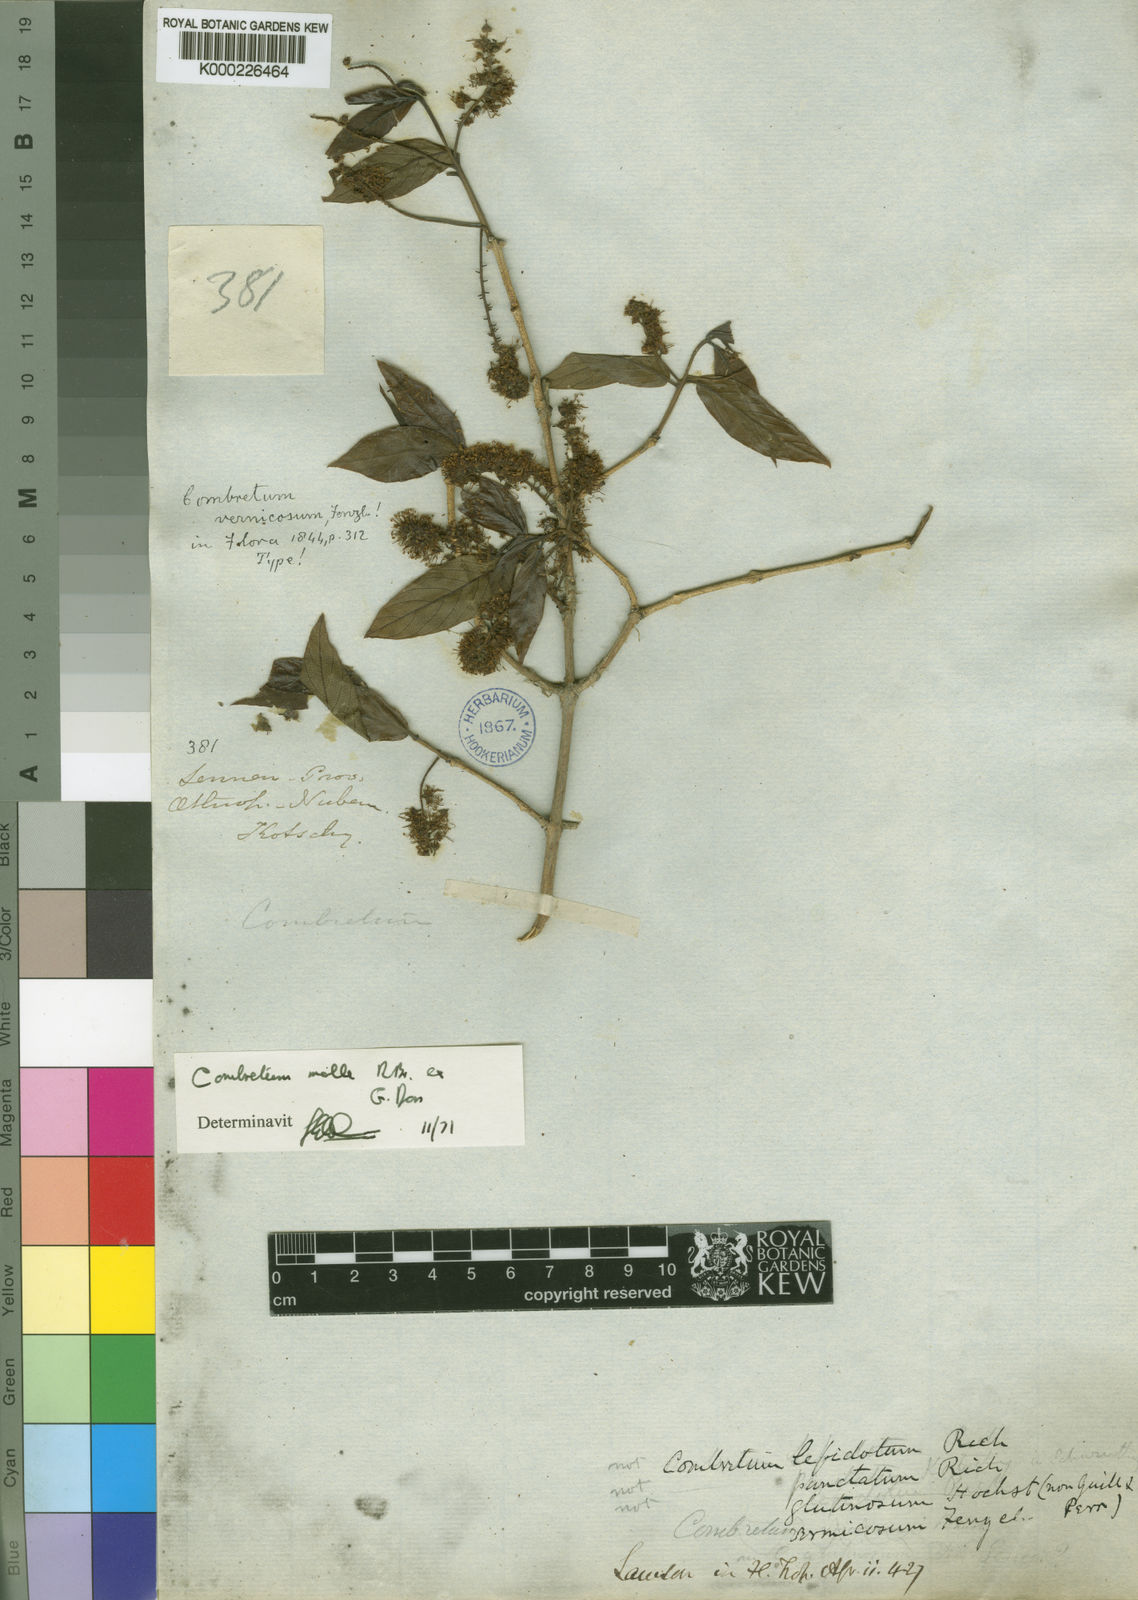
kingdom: Plantae
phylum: Tracheophyta
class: Magnoliopsida
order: Myrtales
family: Combretaceae
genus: Combretum
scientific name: Combretum molle
